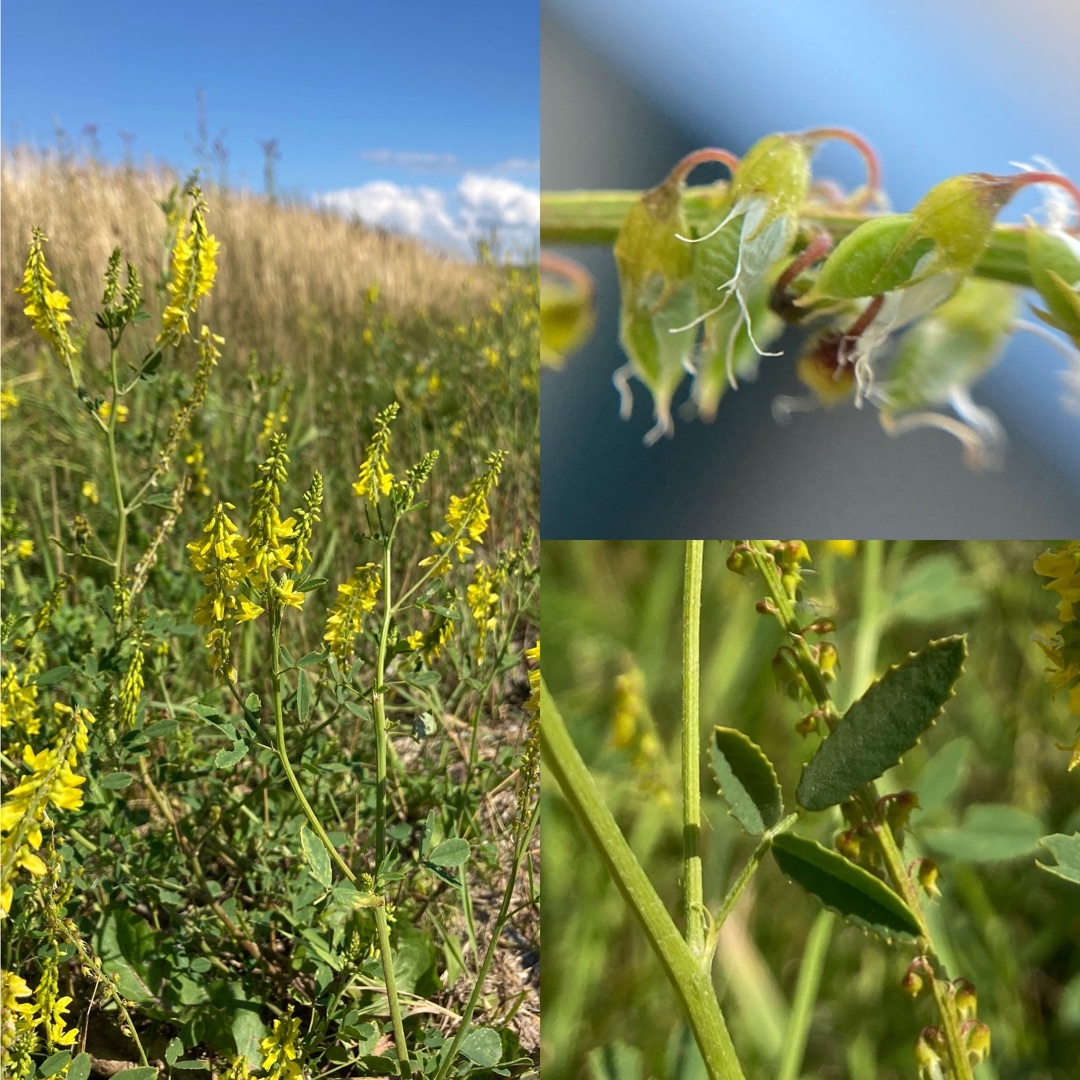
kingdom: Plantae
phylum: Tracheophyta
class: Magnoliopsida
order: Fabales
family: Fabaceae
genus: Melilotus
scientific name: Melilotus officinalis
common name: Mark-stenkløver
